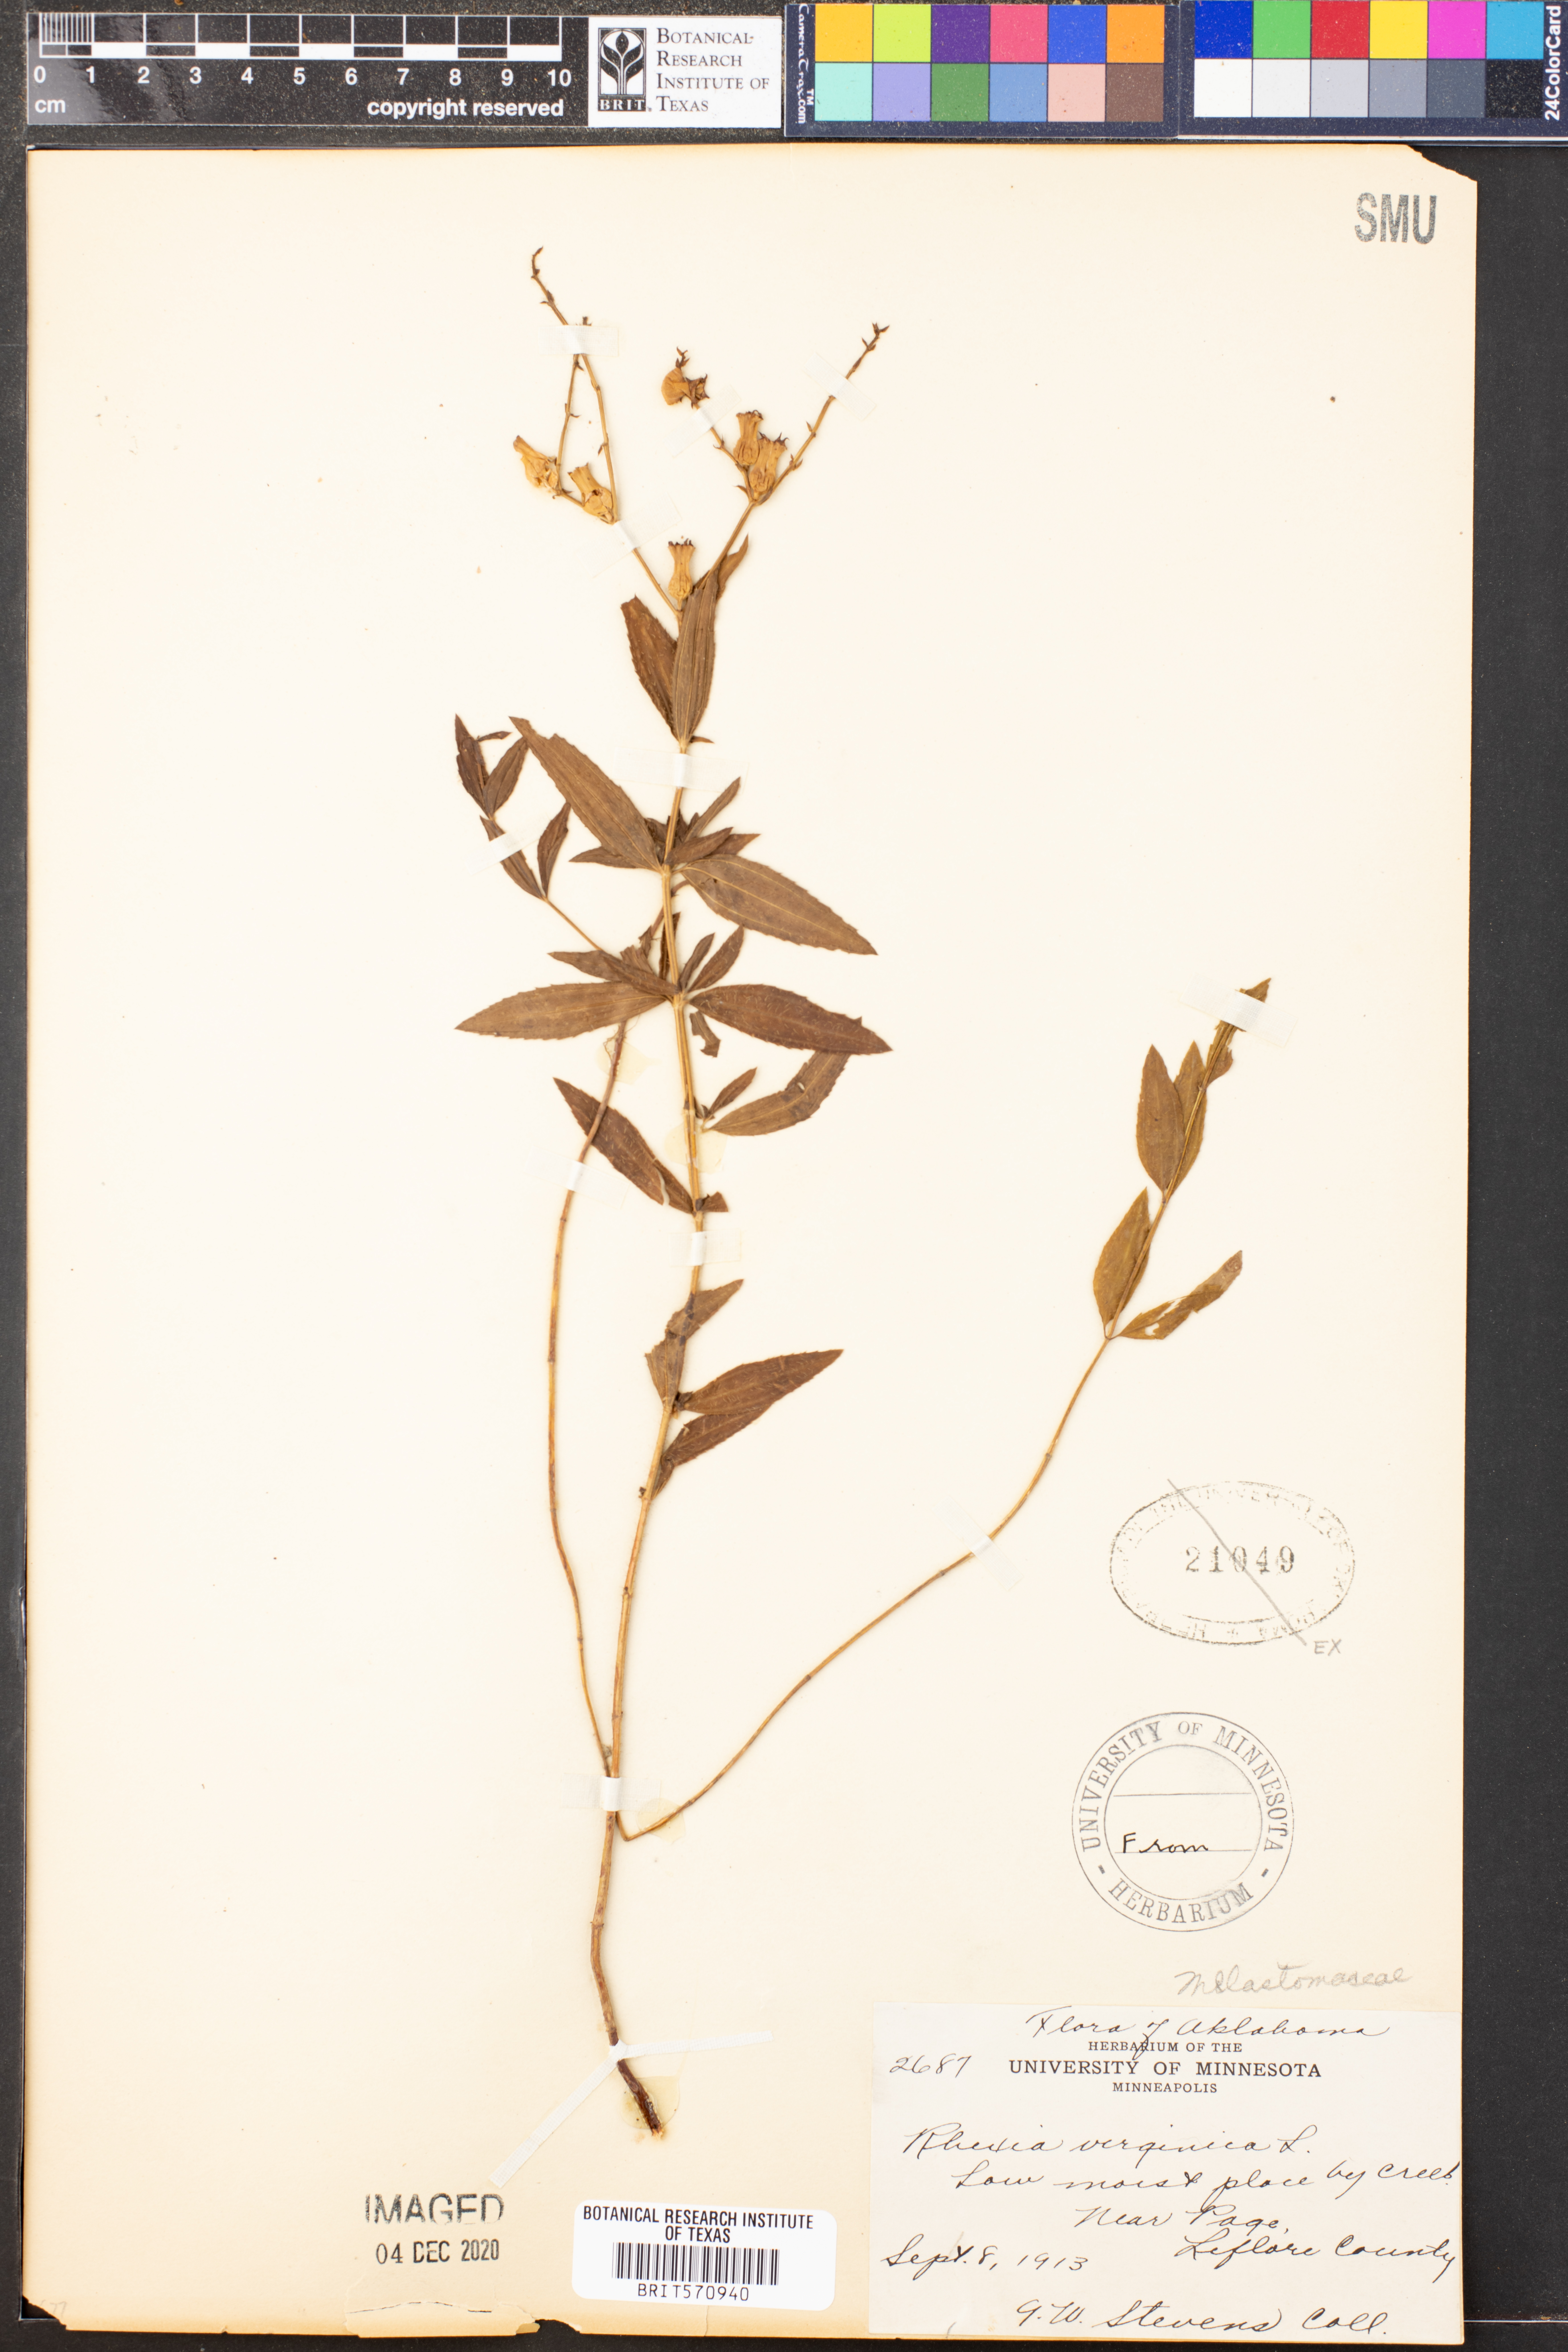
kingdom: Plantae
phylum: Tracheophyta
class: Magnoliopsida
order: Myrtales
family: Melastomataceae
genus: Rhexia
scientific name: Rhexia virginica
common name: Common meadow beauty
